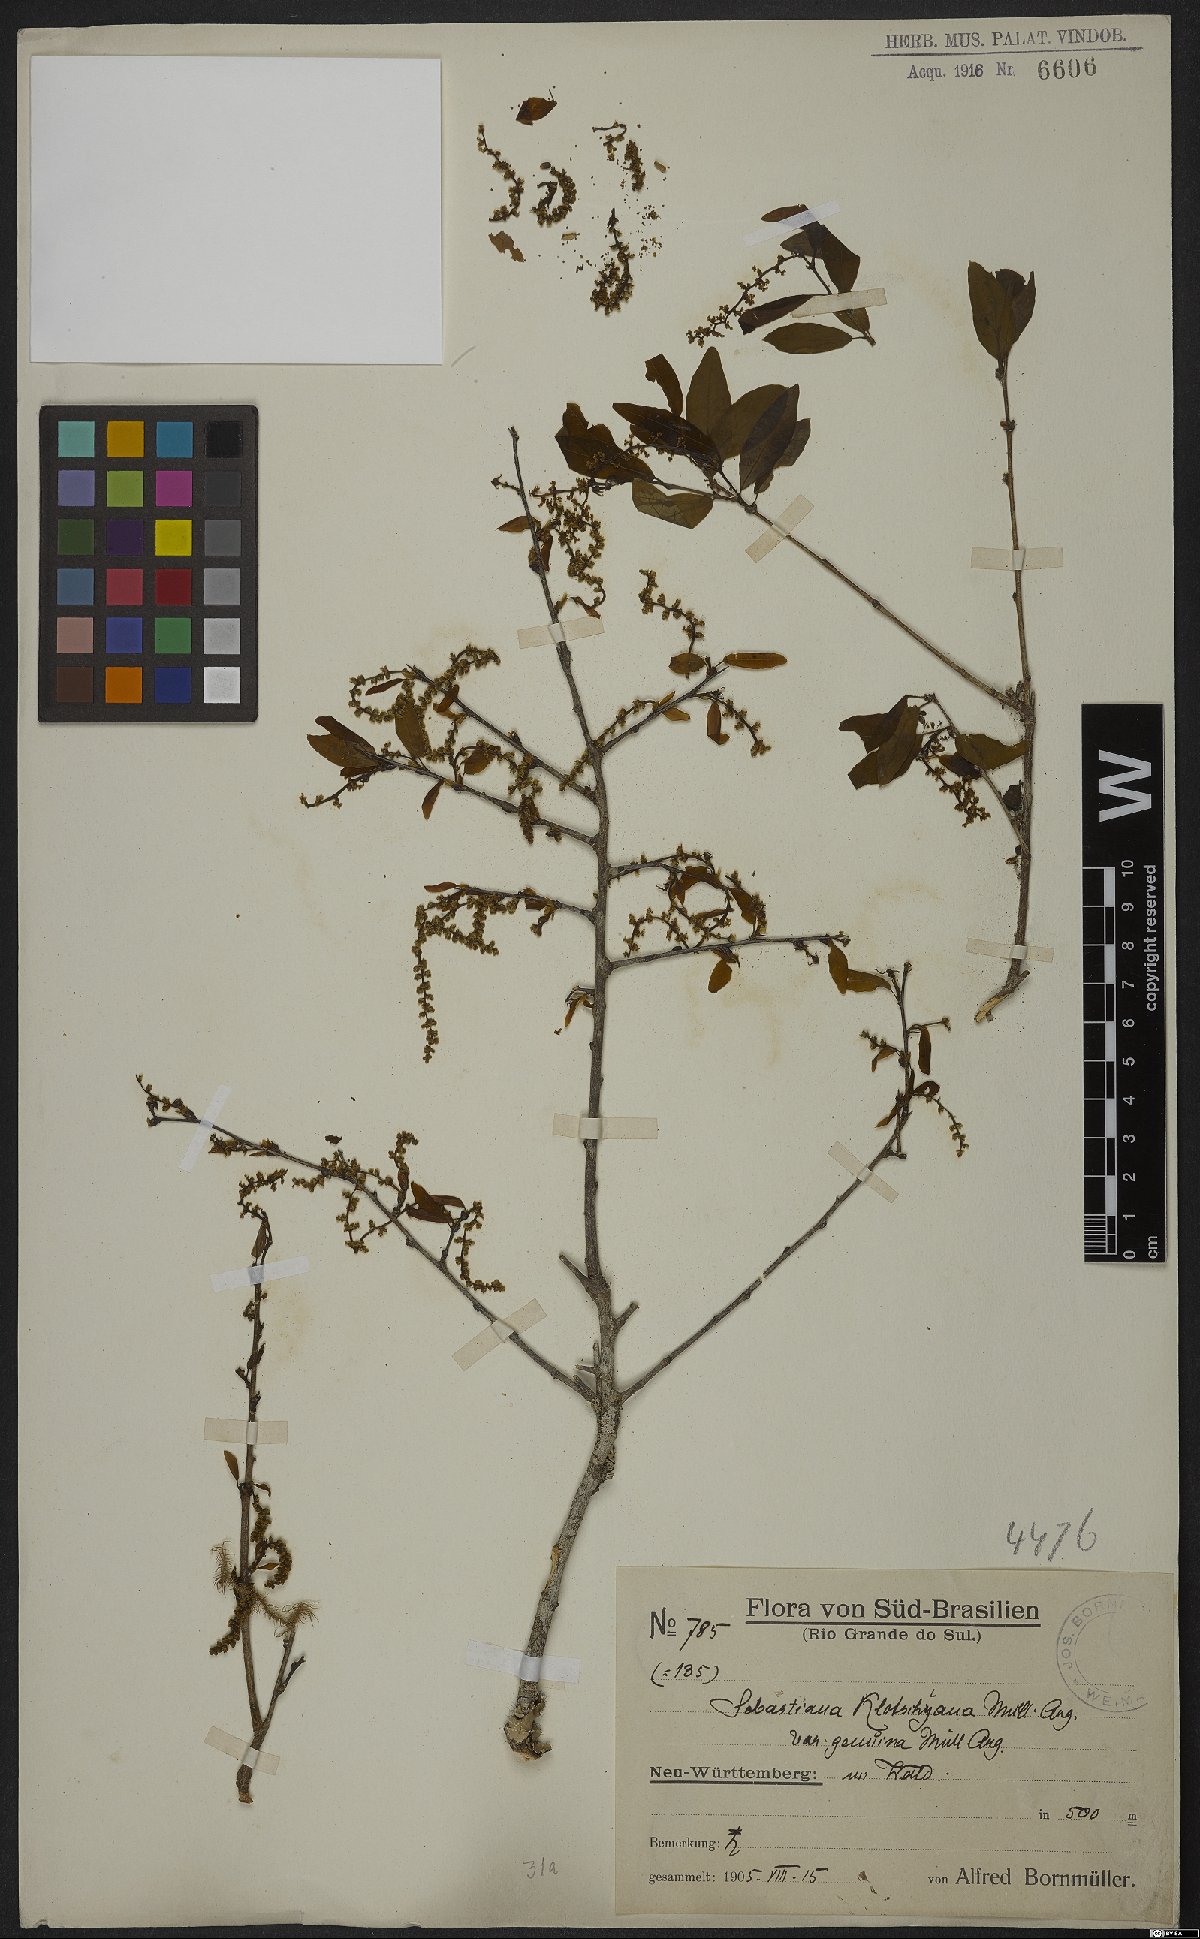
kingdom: Plantae
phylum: Tracheophyta
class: Magnoliopsida
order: Malpighiales
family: Euphorbiaceae
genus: Sebastiania
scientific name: Sebastiania klotzschiana
